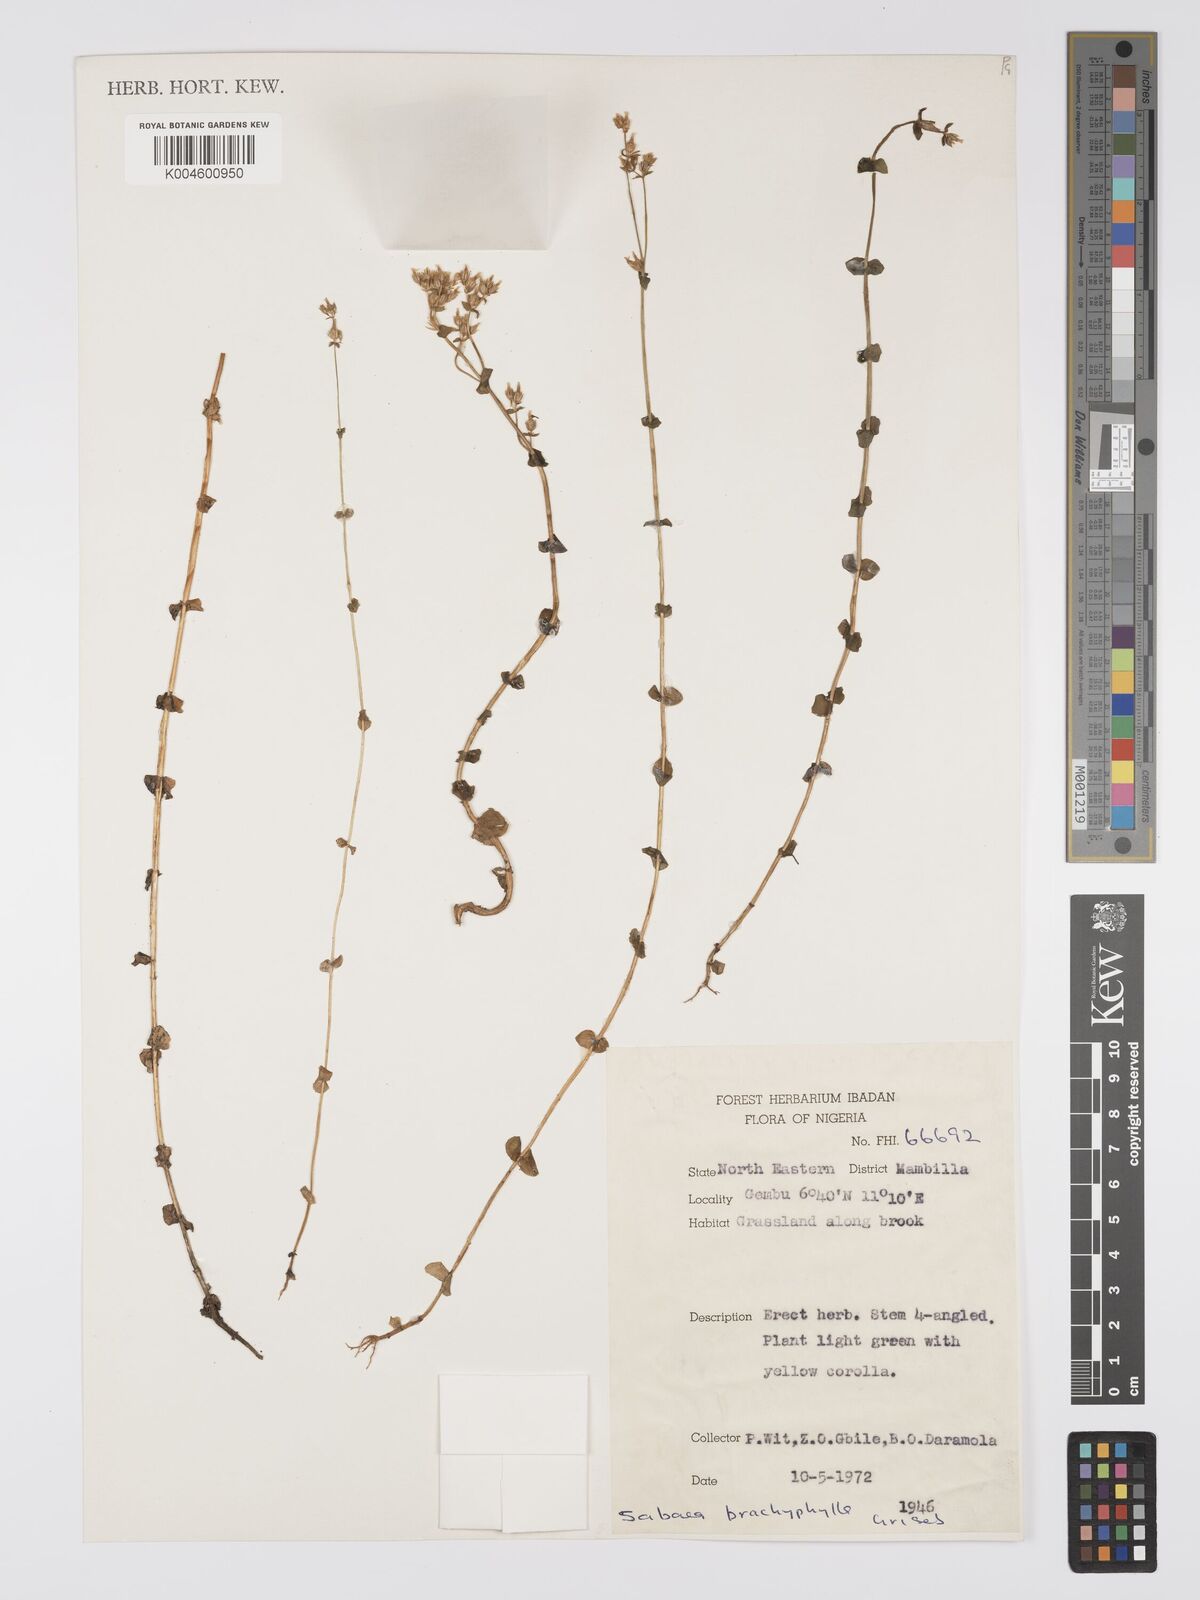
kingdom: Plantae
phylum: Tracheophyta
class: Magnoliopsida
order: Gentianales
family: Gentianaceae
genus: Sebaea
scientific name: Sebaea brachyphylla
